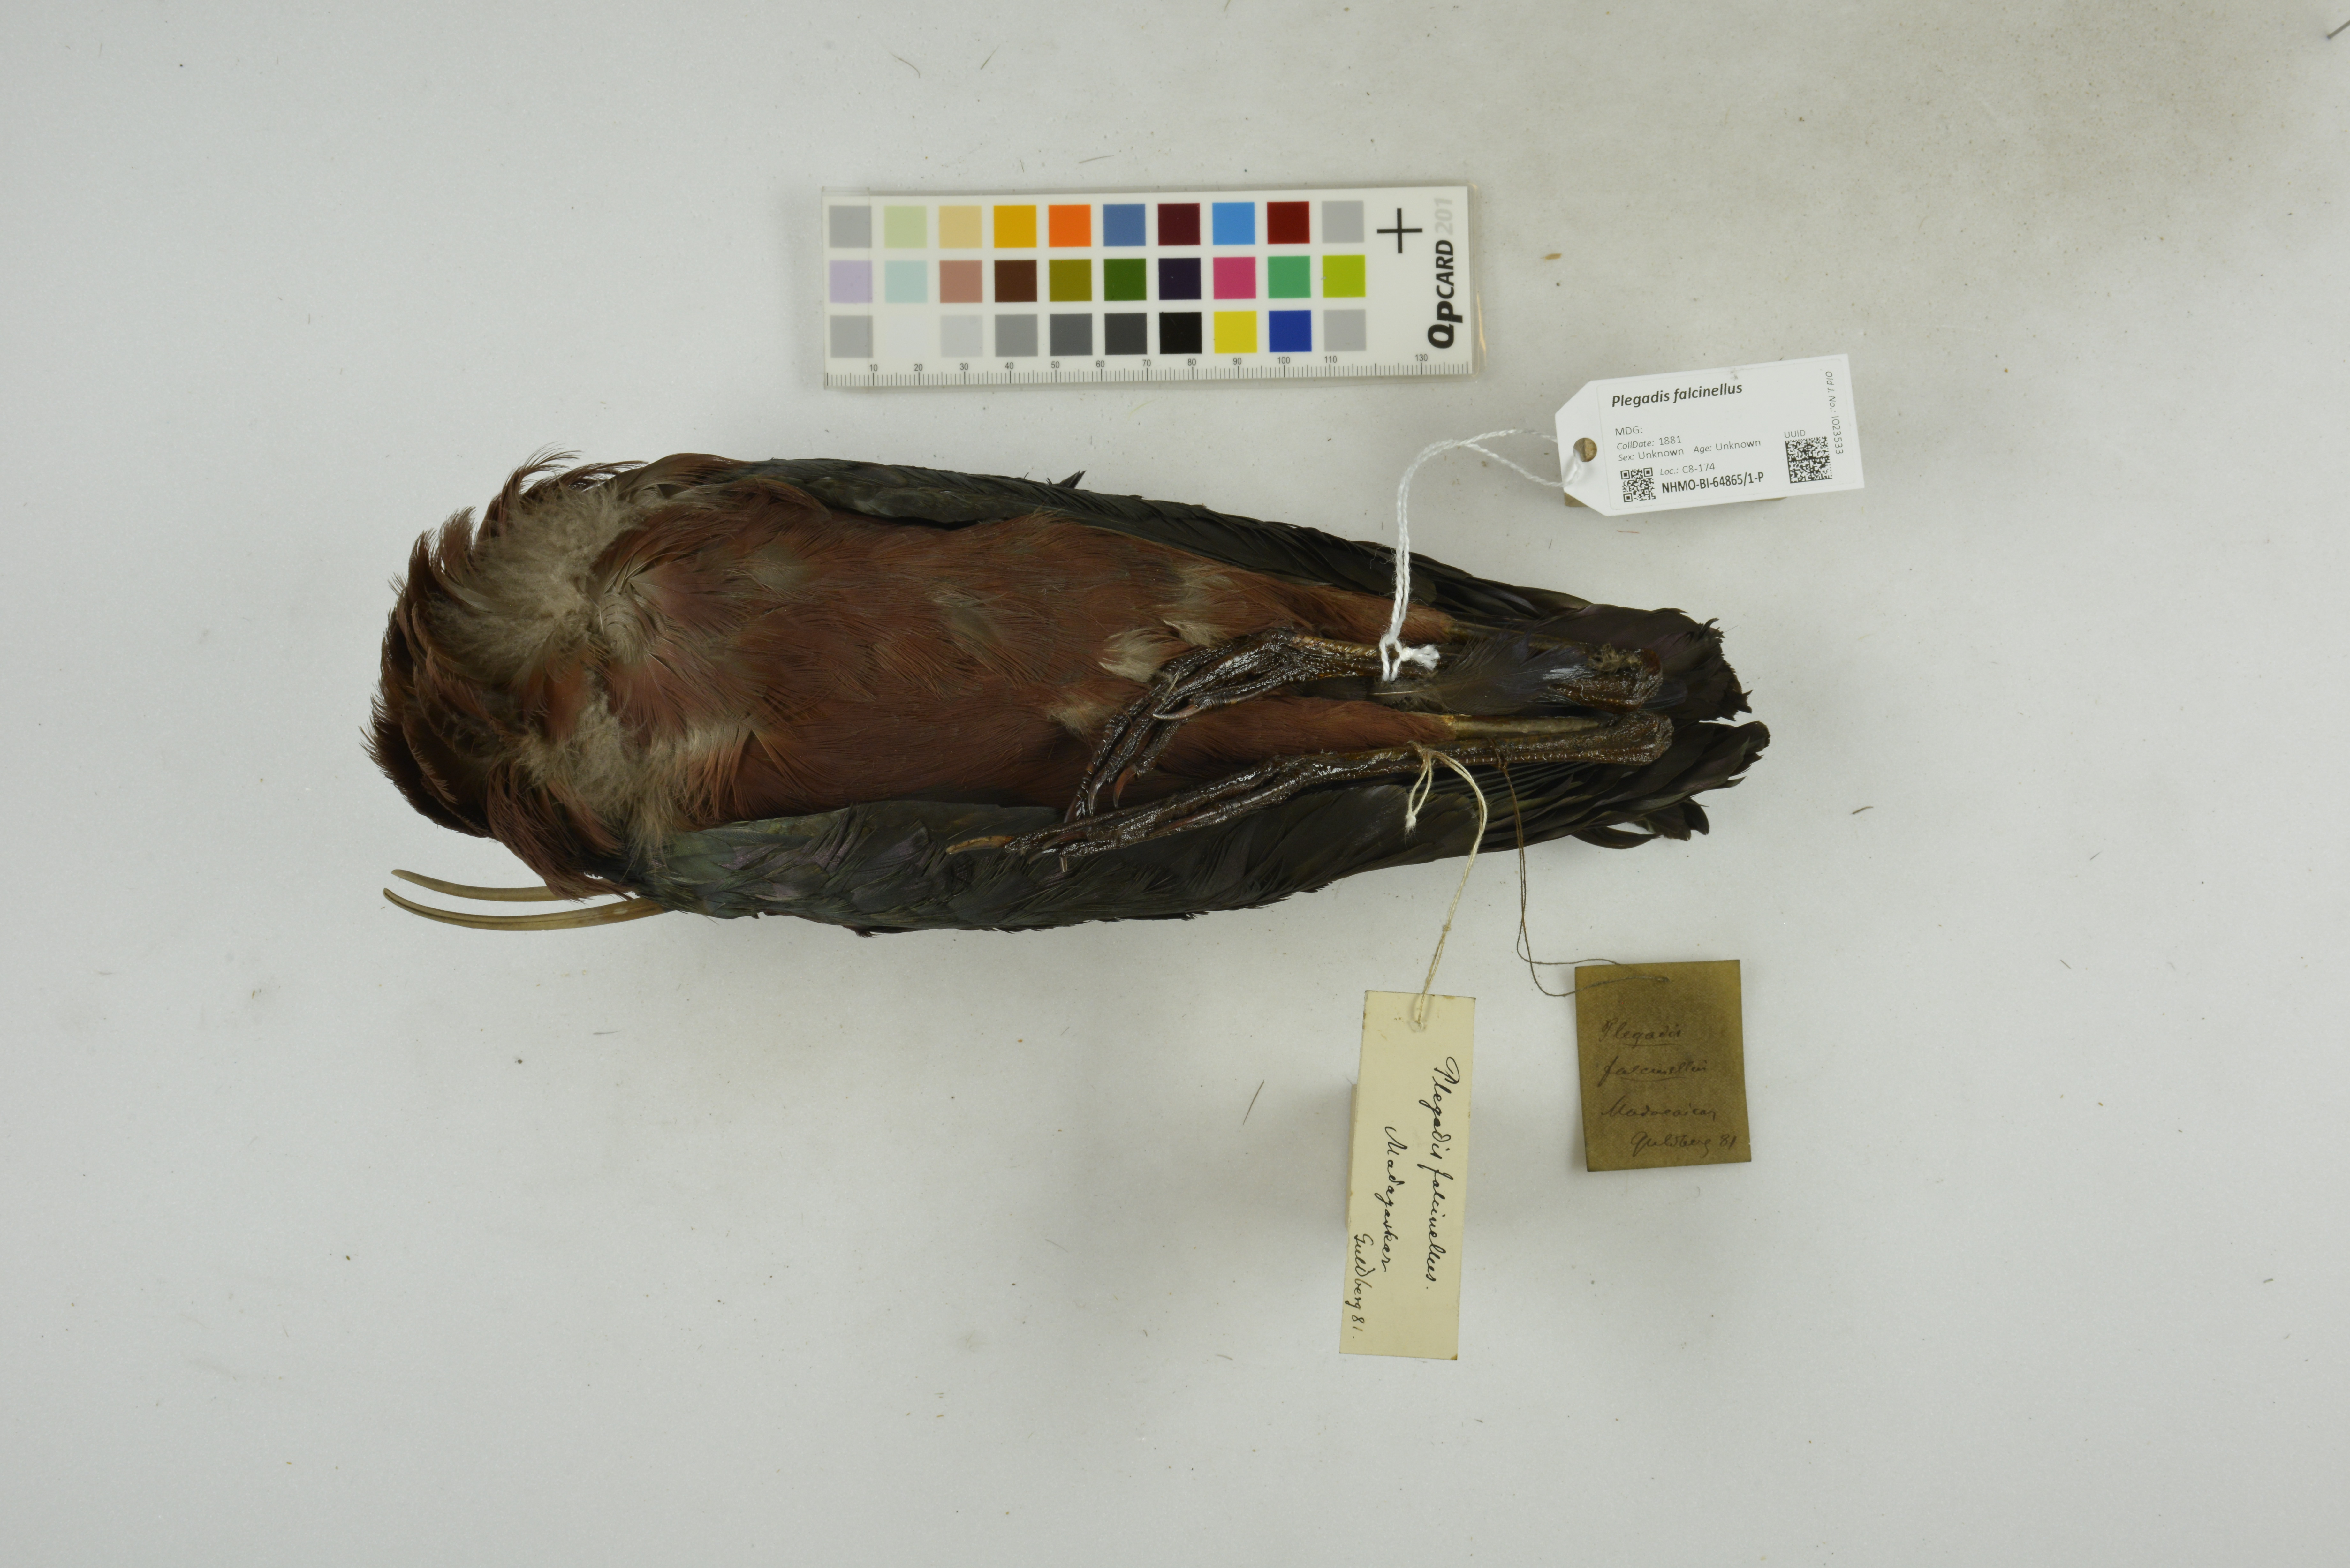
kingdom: Animalia
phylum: Chordata
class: Aves
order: Pelecaniformes
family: Threskiornithidae
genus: Plegadis
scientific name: Plegadis falcinellus
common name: Glossy ibis
